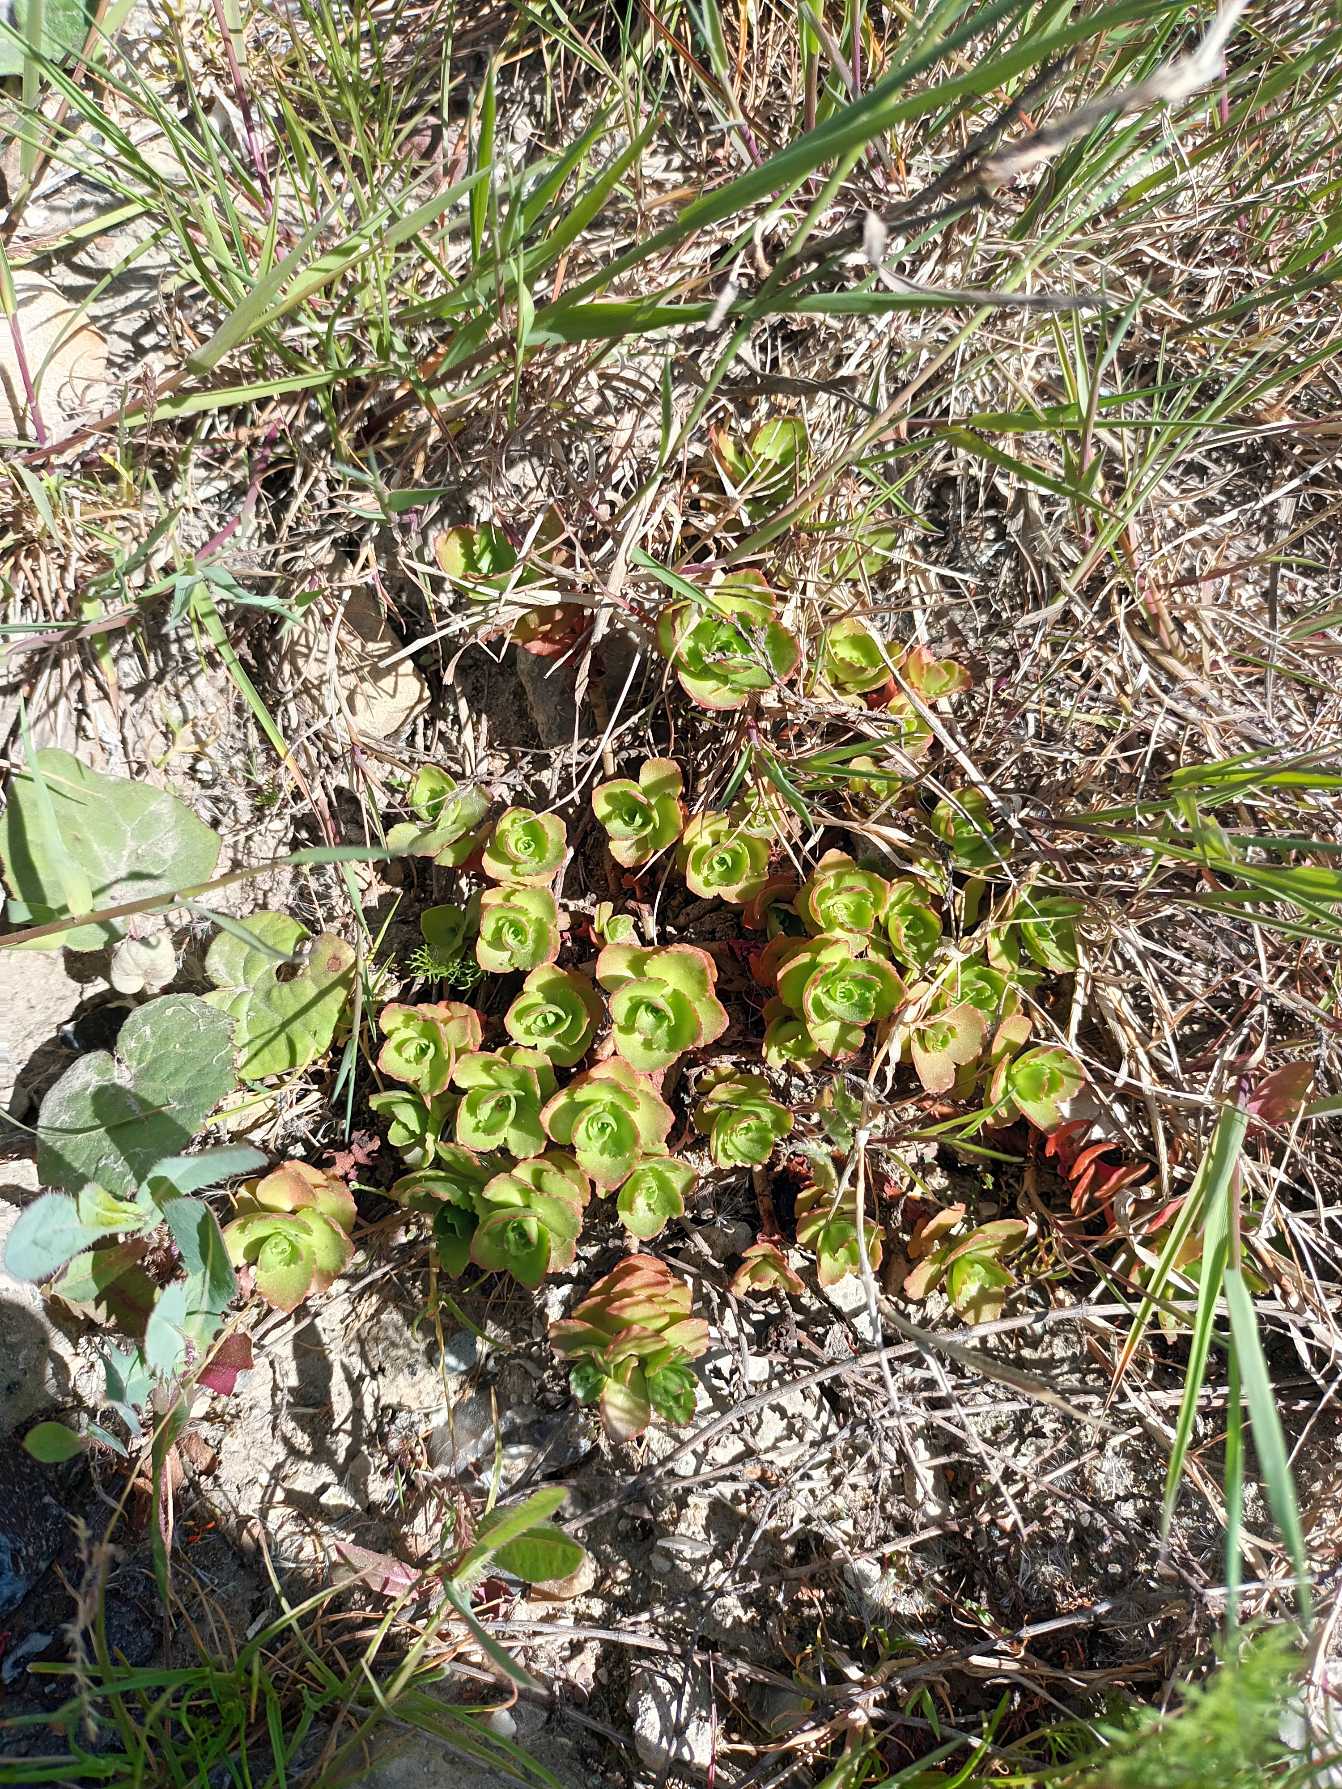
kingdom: Plantae
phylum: Tracheophyta
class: Magnoliopsida
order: Saxifragales
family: Crassulaceae
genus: Phedimus
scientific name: Phedimus spurius
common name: Rød stenurt
